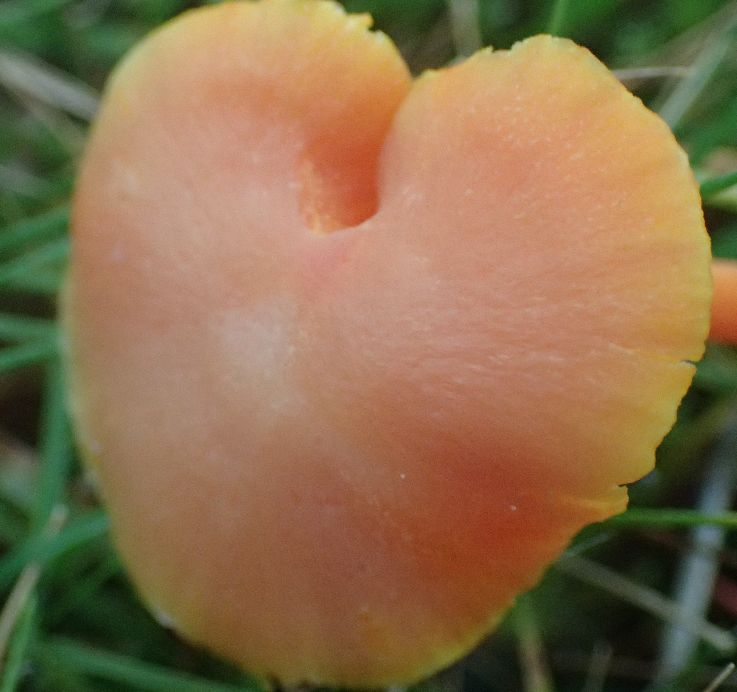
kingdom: Fungi
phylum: Basidiomycota
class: Agaricomycetes
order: Agaricales
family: Hygrophoraceae
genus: Hygrocybe
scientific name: Hygrocybe reidii
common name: honning-vokshat
